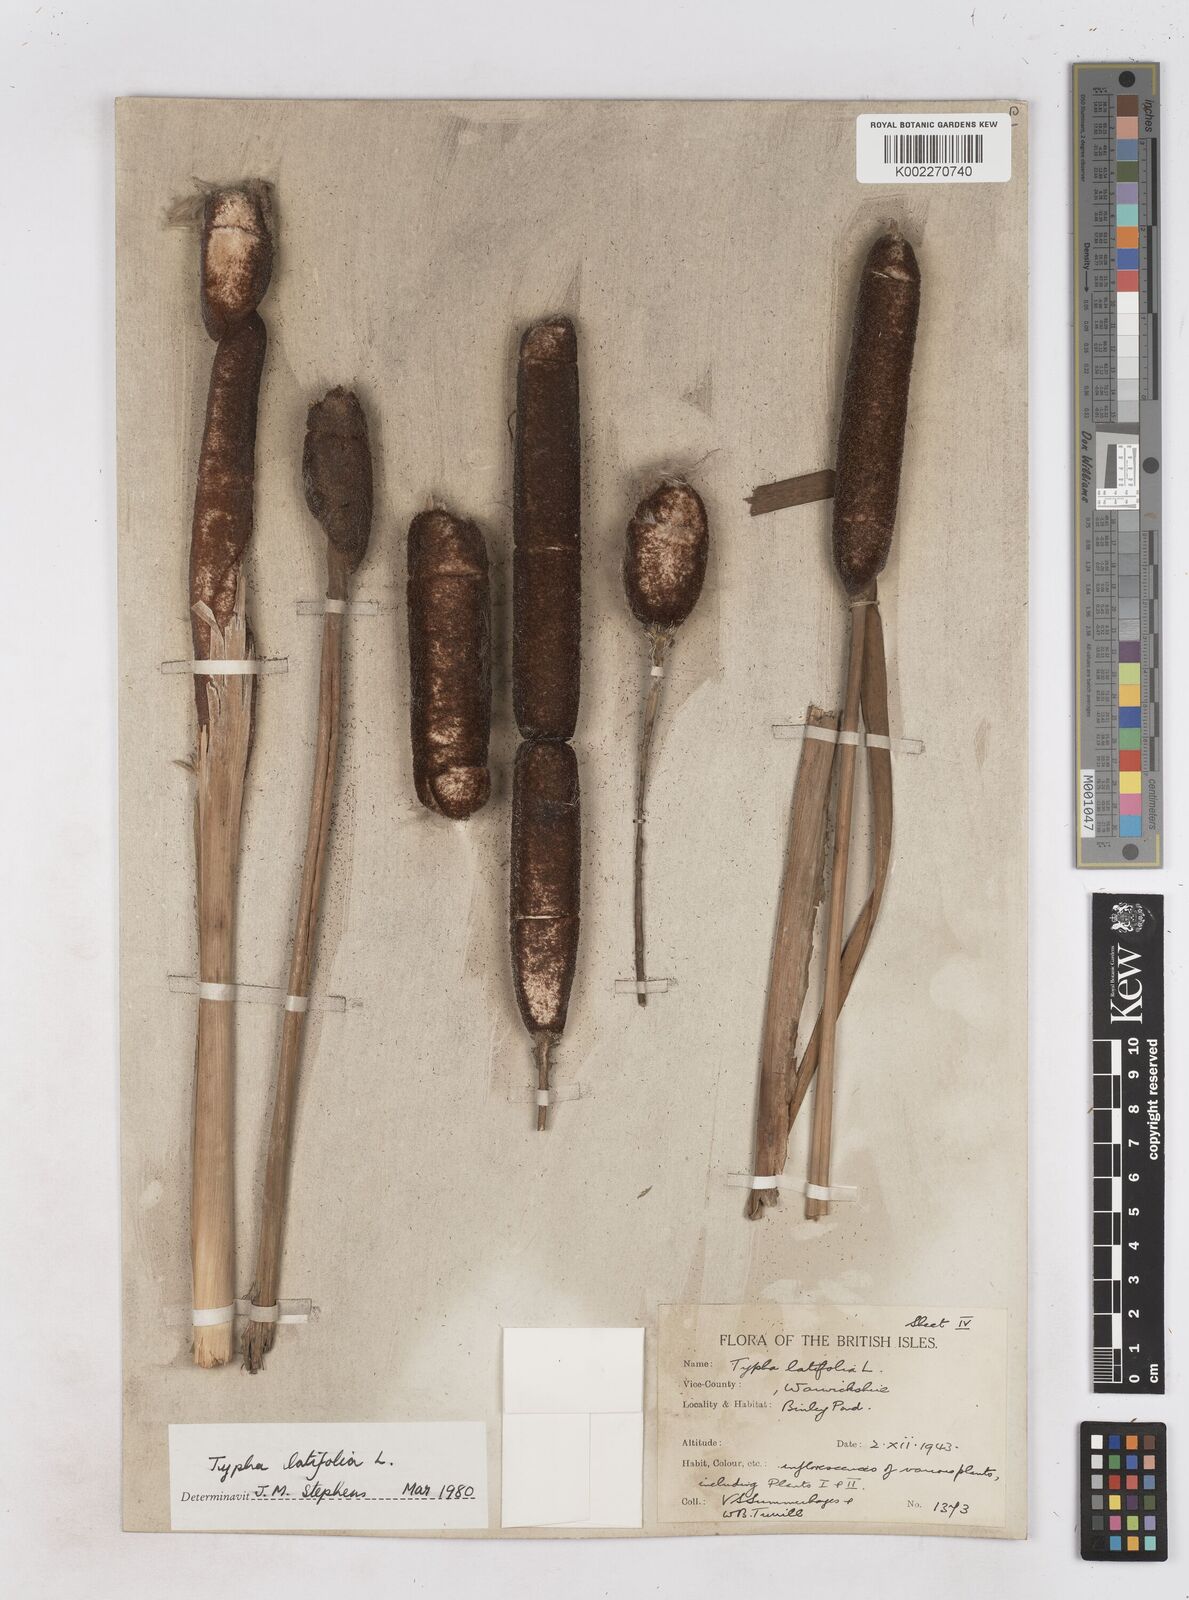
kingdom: Plantae
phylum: Tracheophyta
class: Liliopsida
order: Poales
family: Typhaceae
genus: Typha
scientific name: Typha latifolia
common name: Broadleaf cattail
